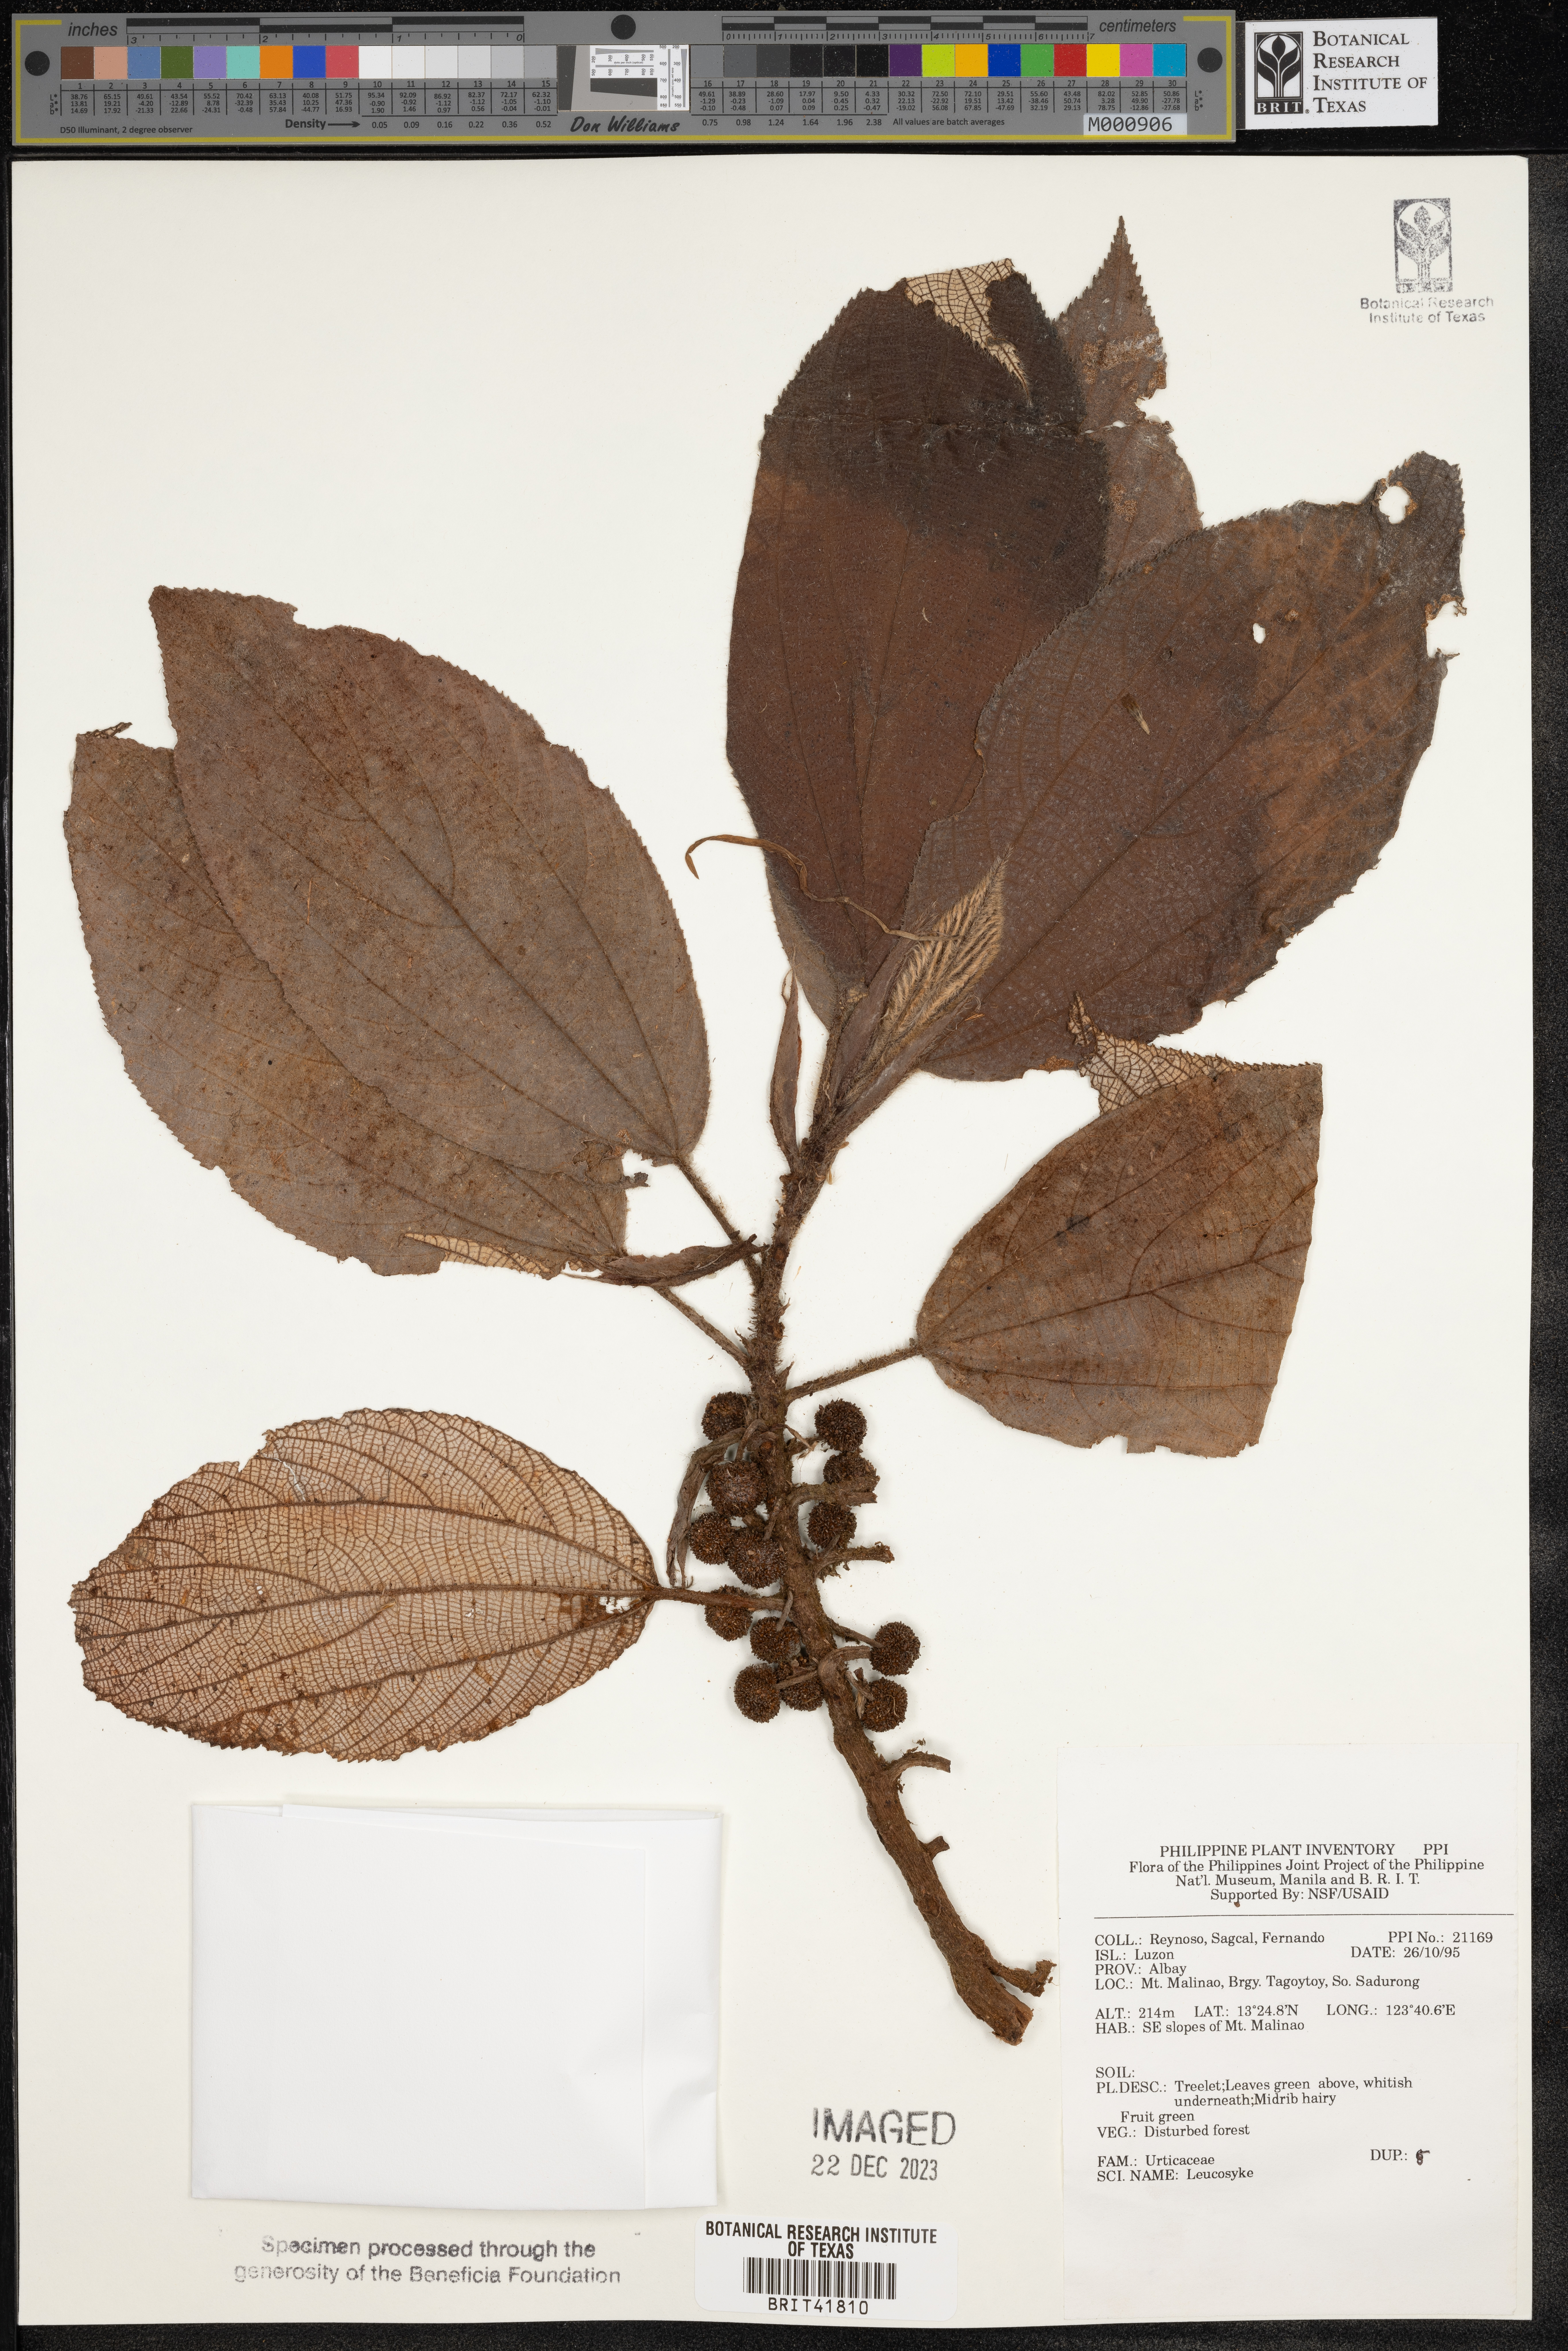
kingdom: Plantae
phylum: Tracheophyta
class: Magnoliopsida
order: Rosales
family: Urticaceae
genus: Leucosyke
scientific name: Leucosyke
